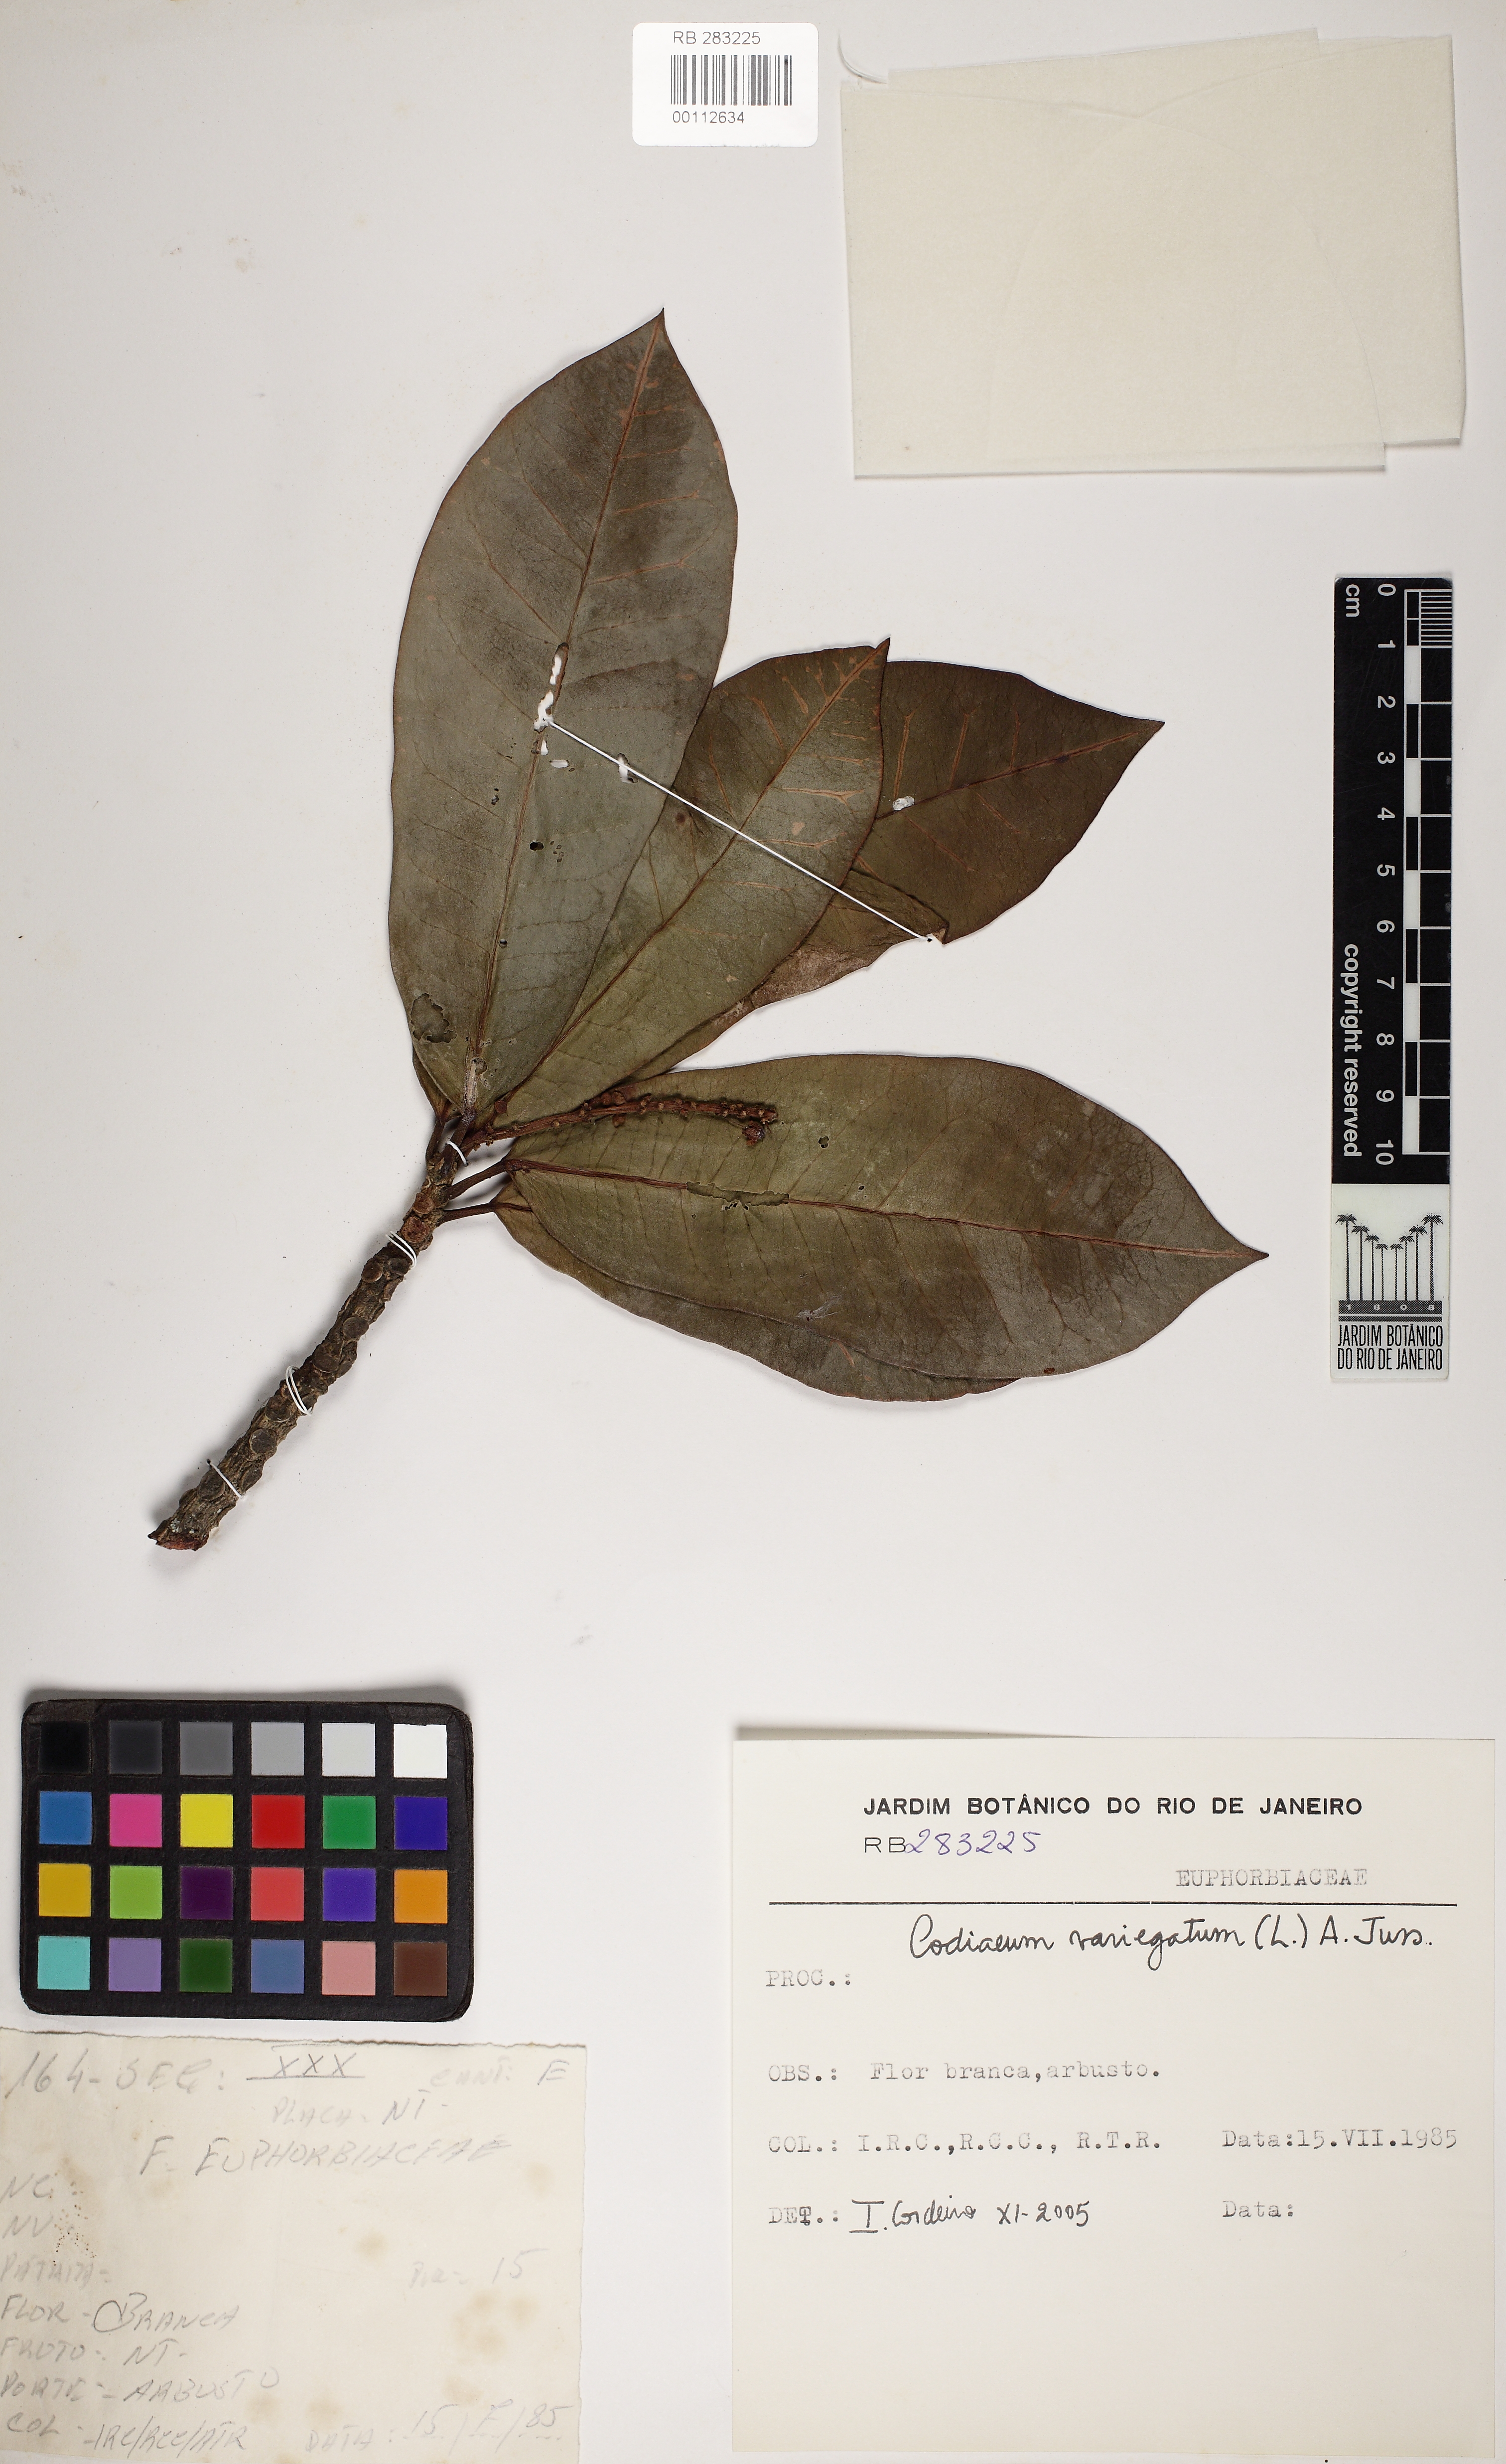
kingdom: Plantae
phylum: Tracheophyta
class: Magnoliopsida
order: Malpighiales
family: Euphorbiaceae
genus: Codiaeum
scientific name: Codiaeum variegatum
